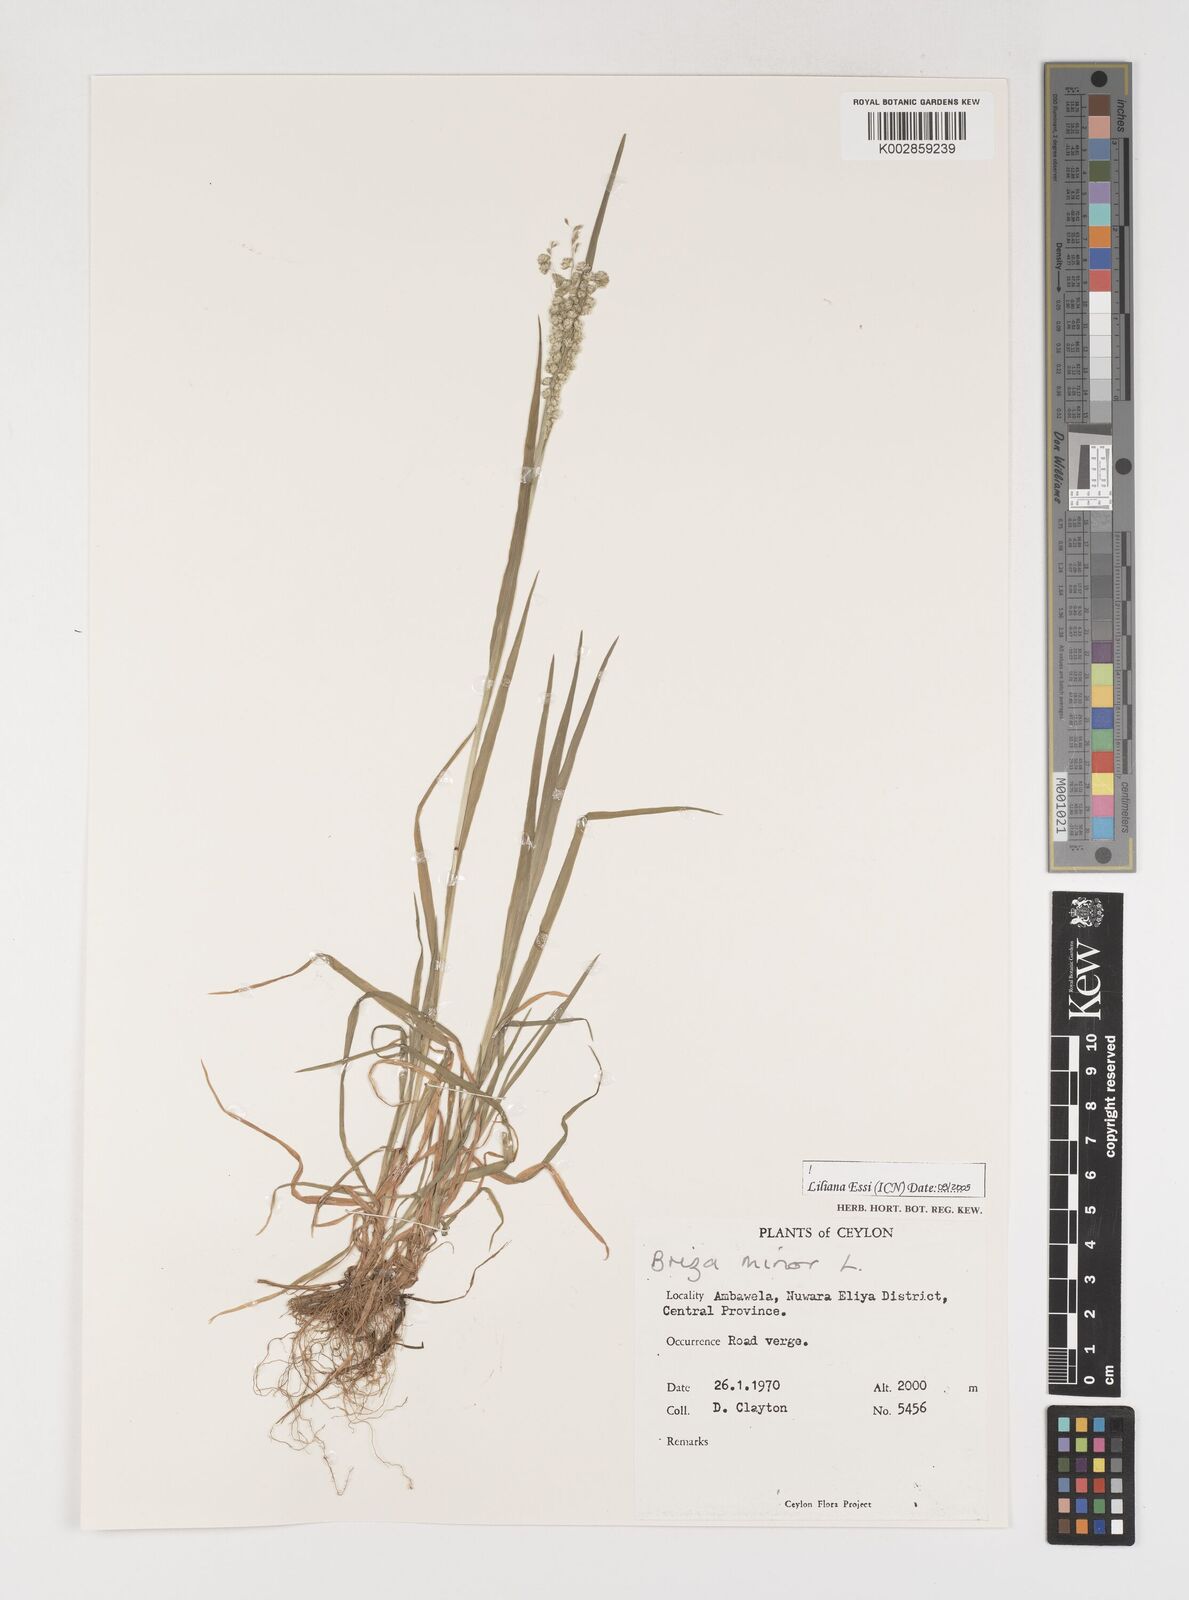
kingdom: Plantae
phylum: Tracheophyta
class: Liliopsida
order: Poales
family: Poaceae
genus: Briza
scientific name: Briza minor
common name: Lesser quaking-grass
